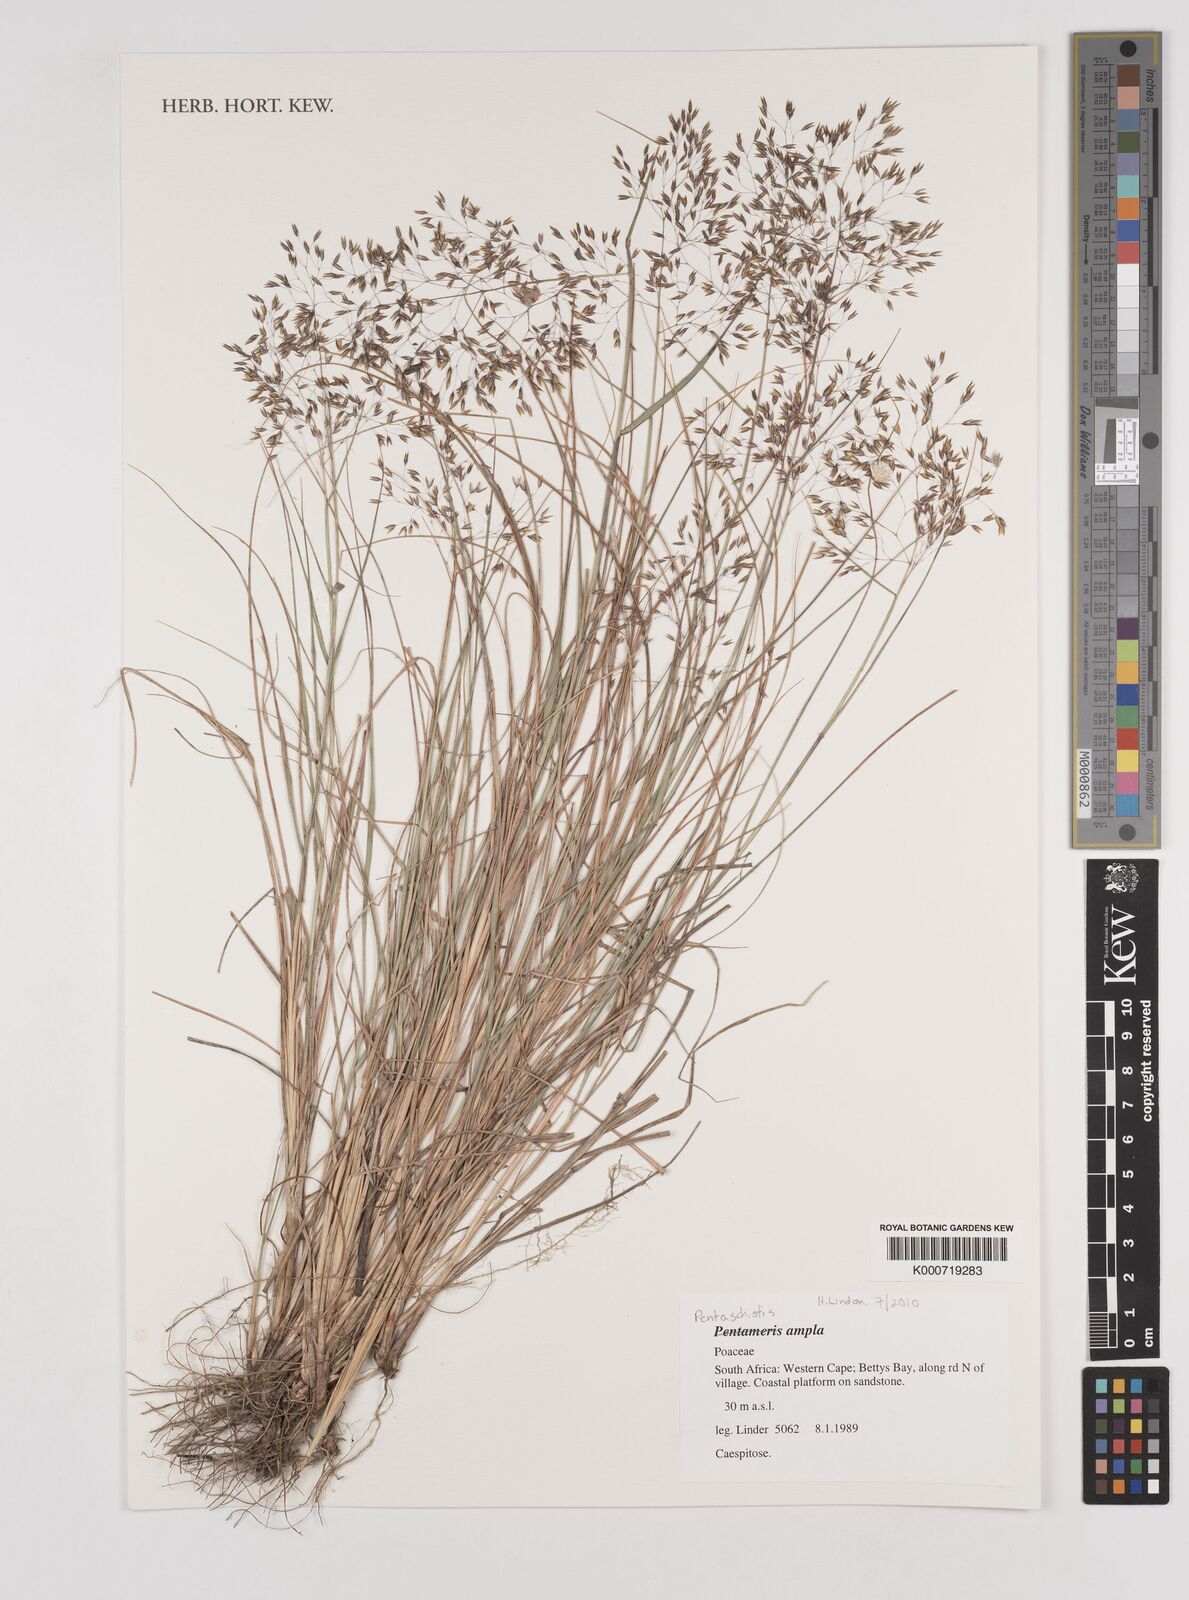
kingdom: Plantae
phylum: Tracheophyta
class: Liliopsida
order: Poales
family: Poaceae
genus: Pentameris
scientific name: Pentameris ampla
